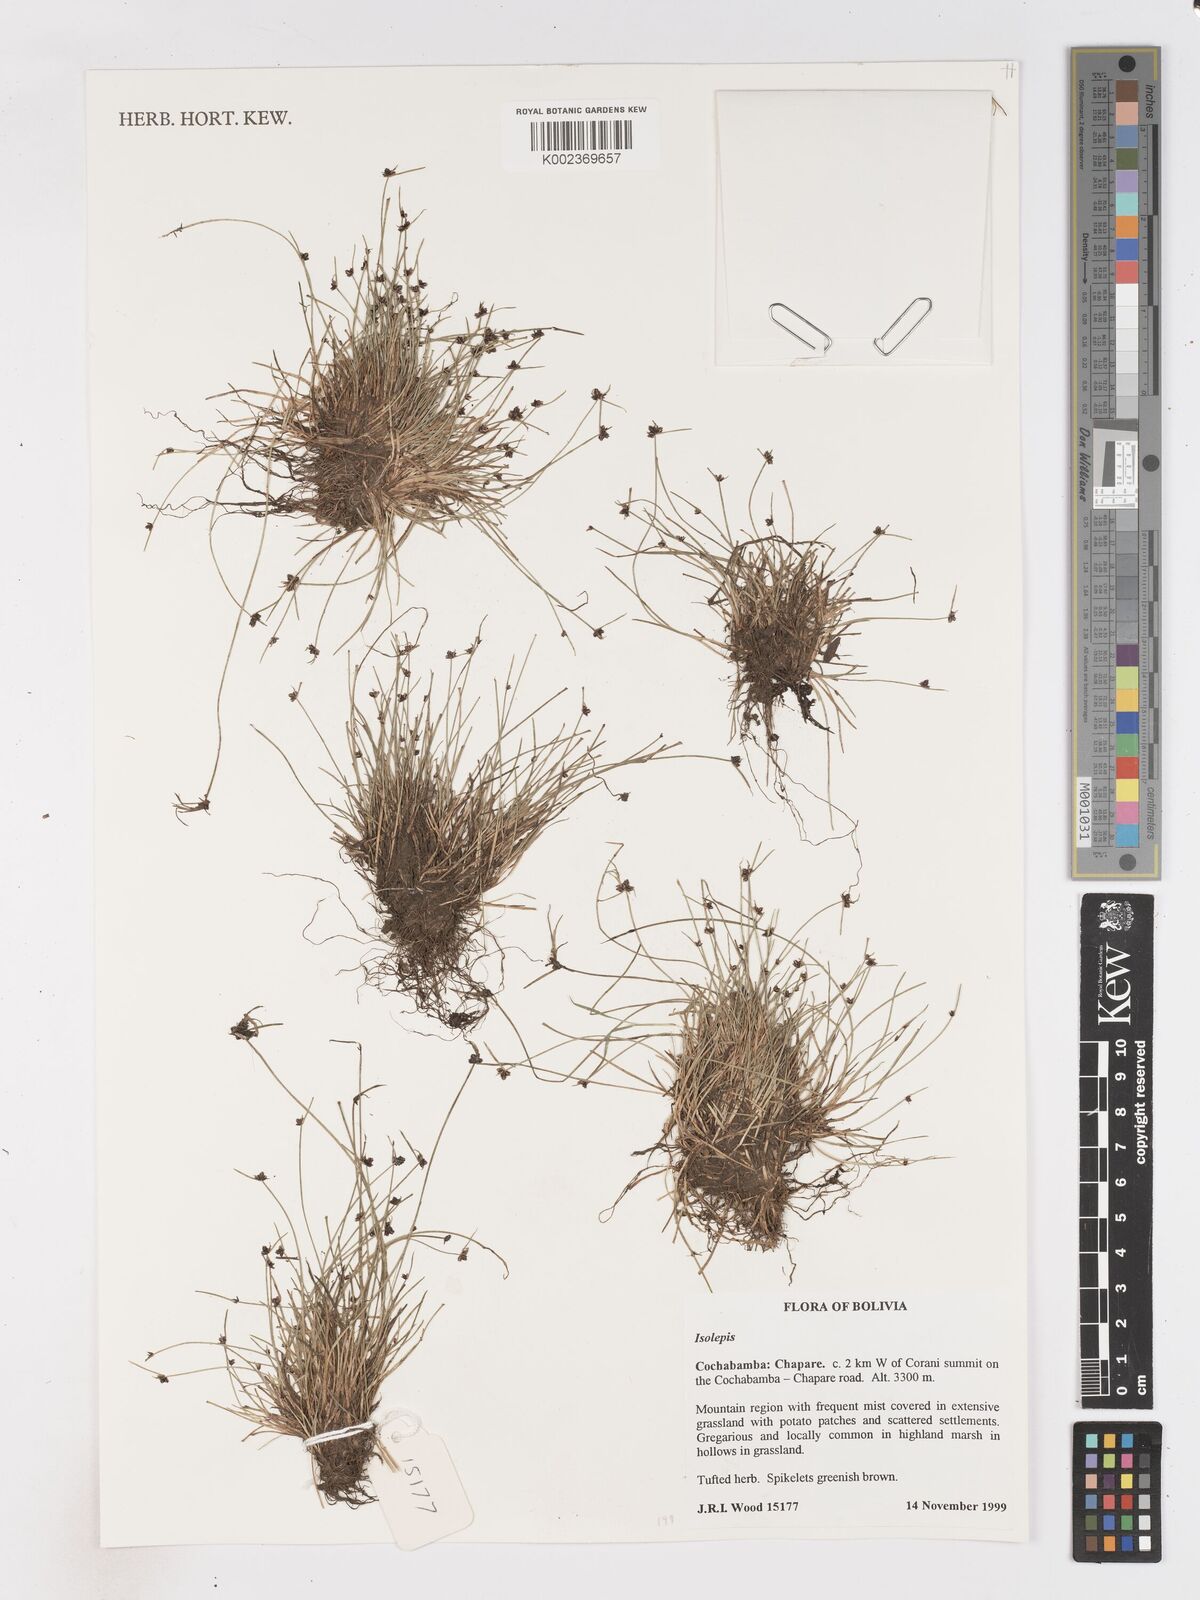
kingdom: Plantae
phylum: Tracheophyta
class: Liliopsida
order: Poales
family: Cyperaceae
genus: Isolepis
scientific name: Isolepis
